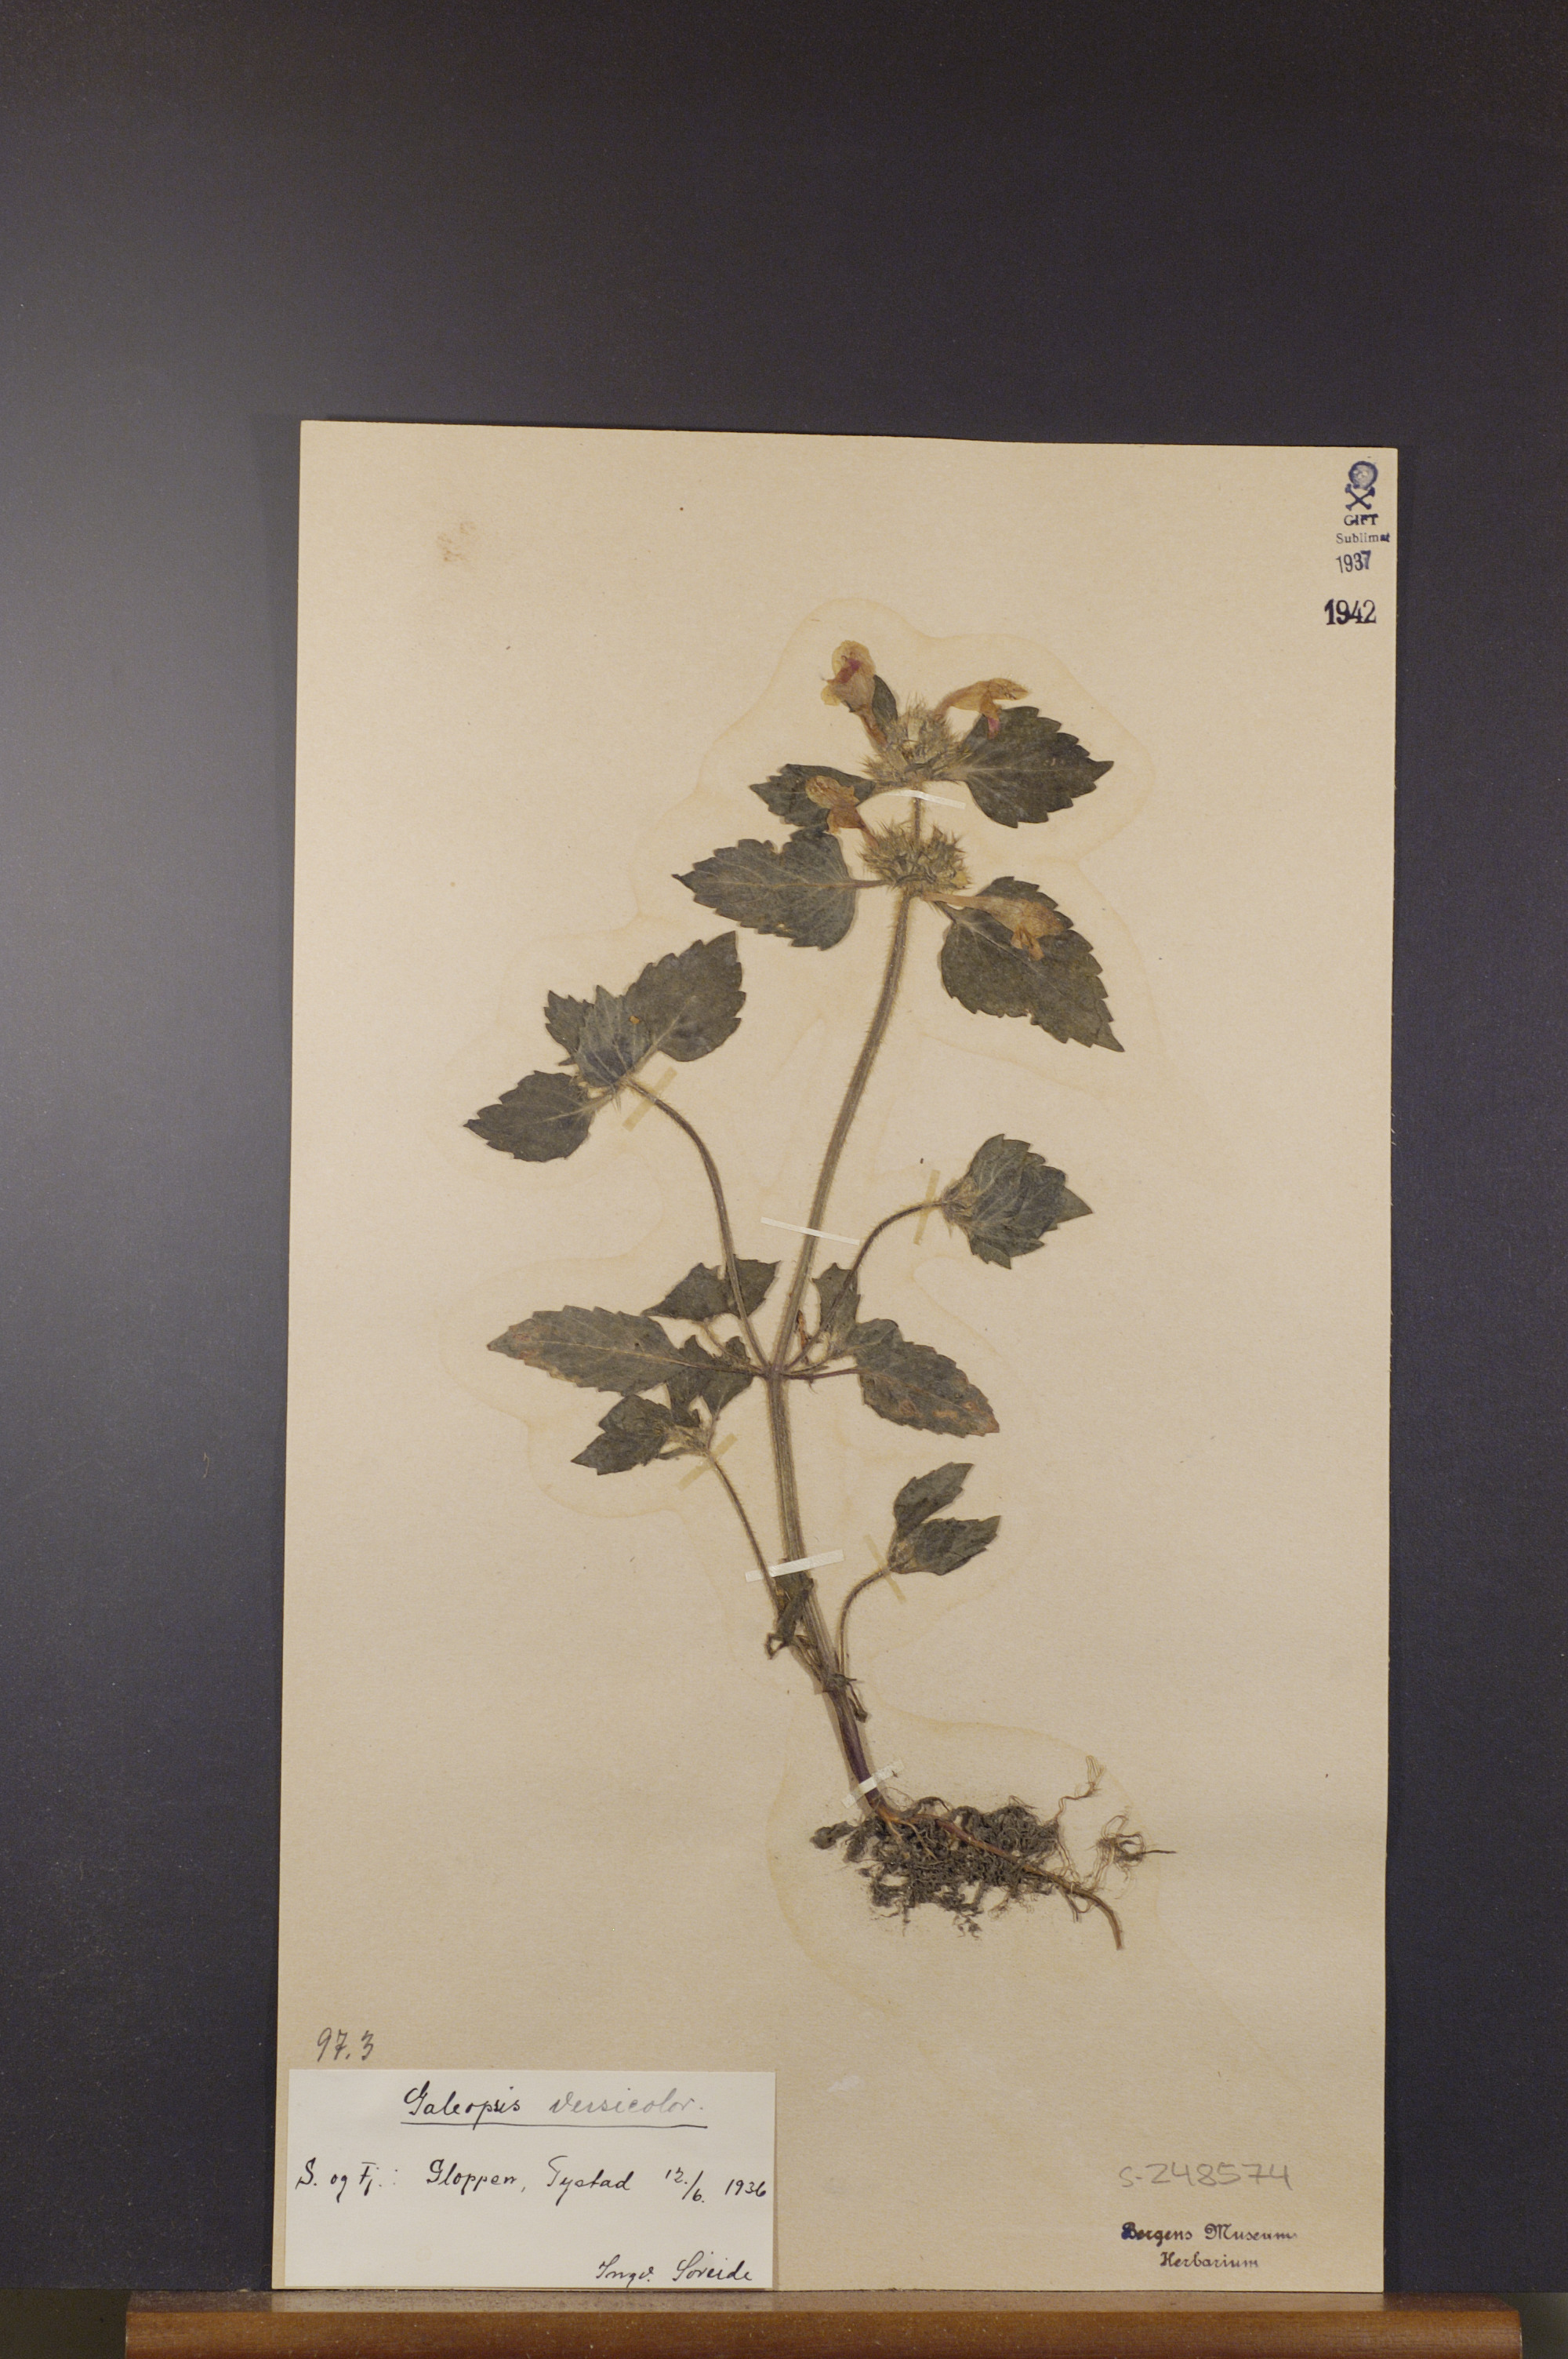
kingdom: Plantae
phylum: Tracheophyta
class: Magnoliopsida
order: Lamiales
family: Lamiaceae
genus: Galeopsis
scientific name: Galeopsis speciosa
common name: Large-flowered hemp-nettle
